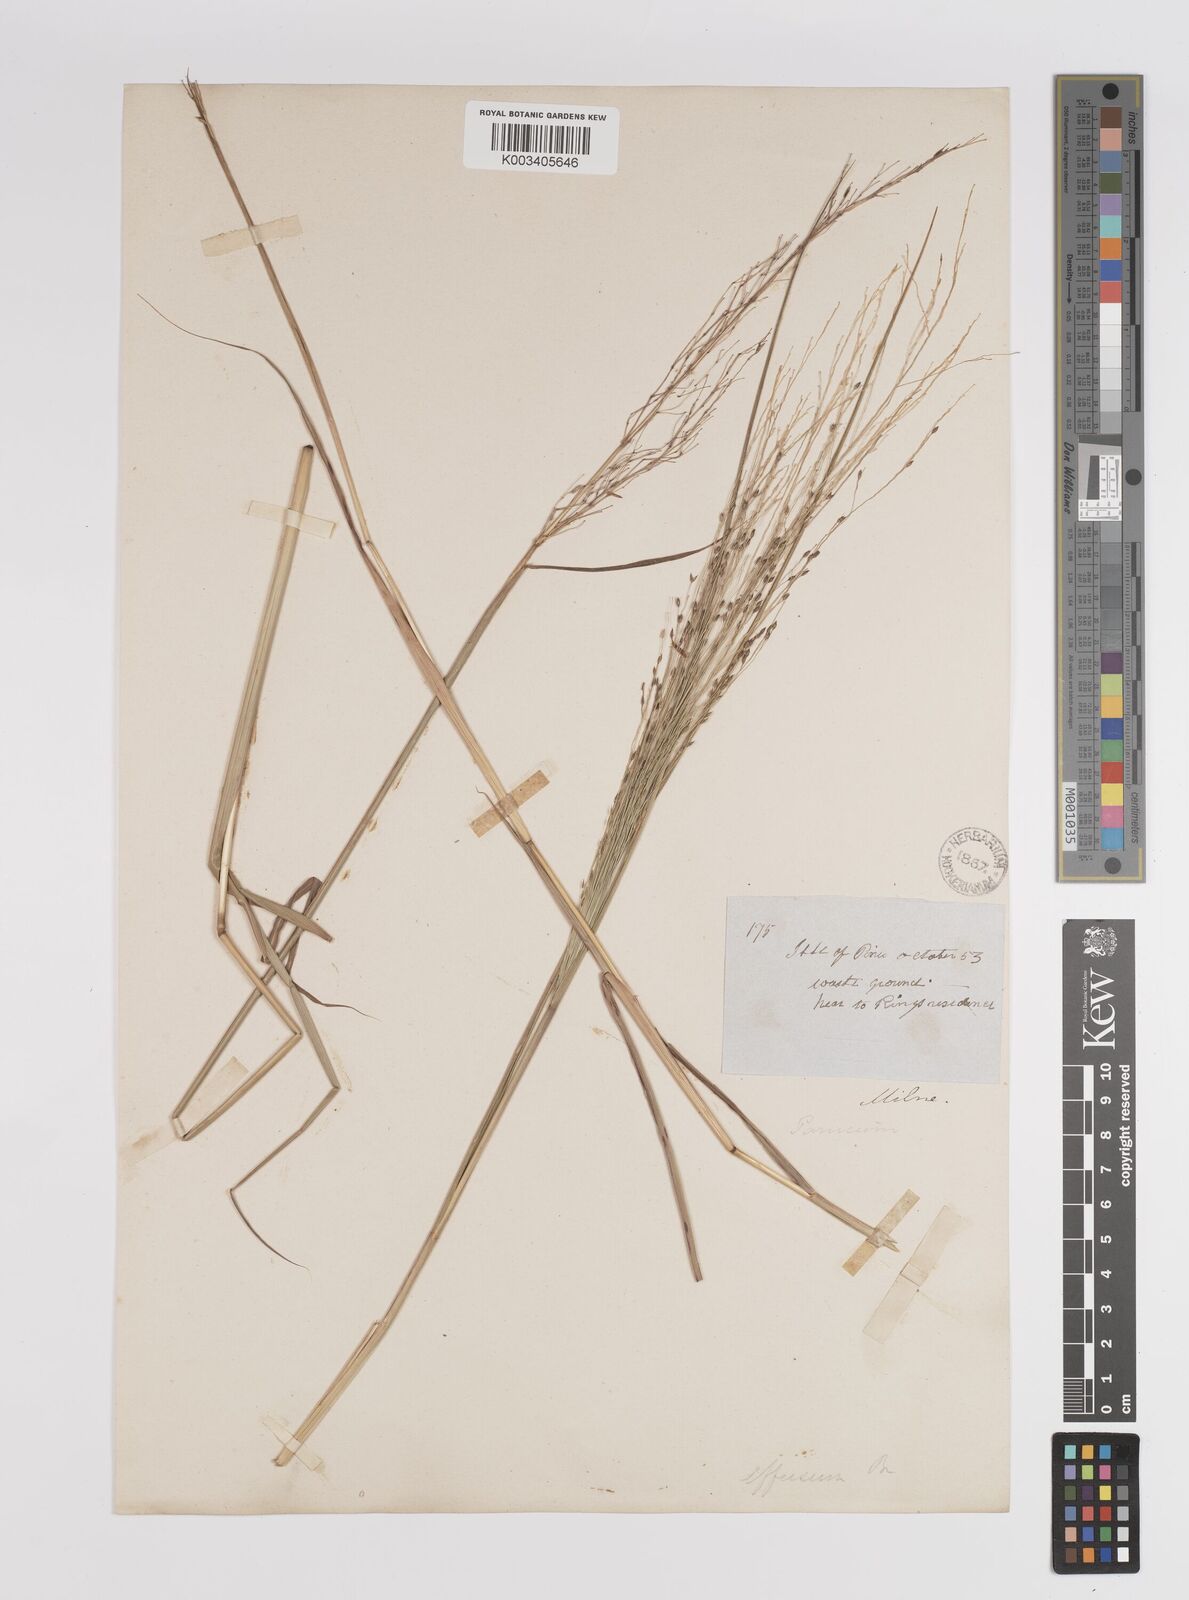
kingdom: Plantae
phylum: Tracheophyta
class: Liliopsida
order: Poales
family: Poaceae
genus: Panicum
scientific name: Panicum decompositum
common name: Australian millet
